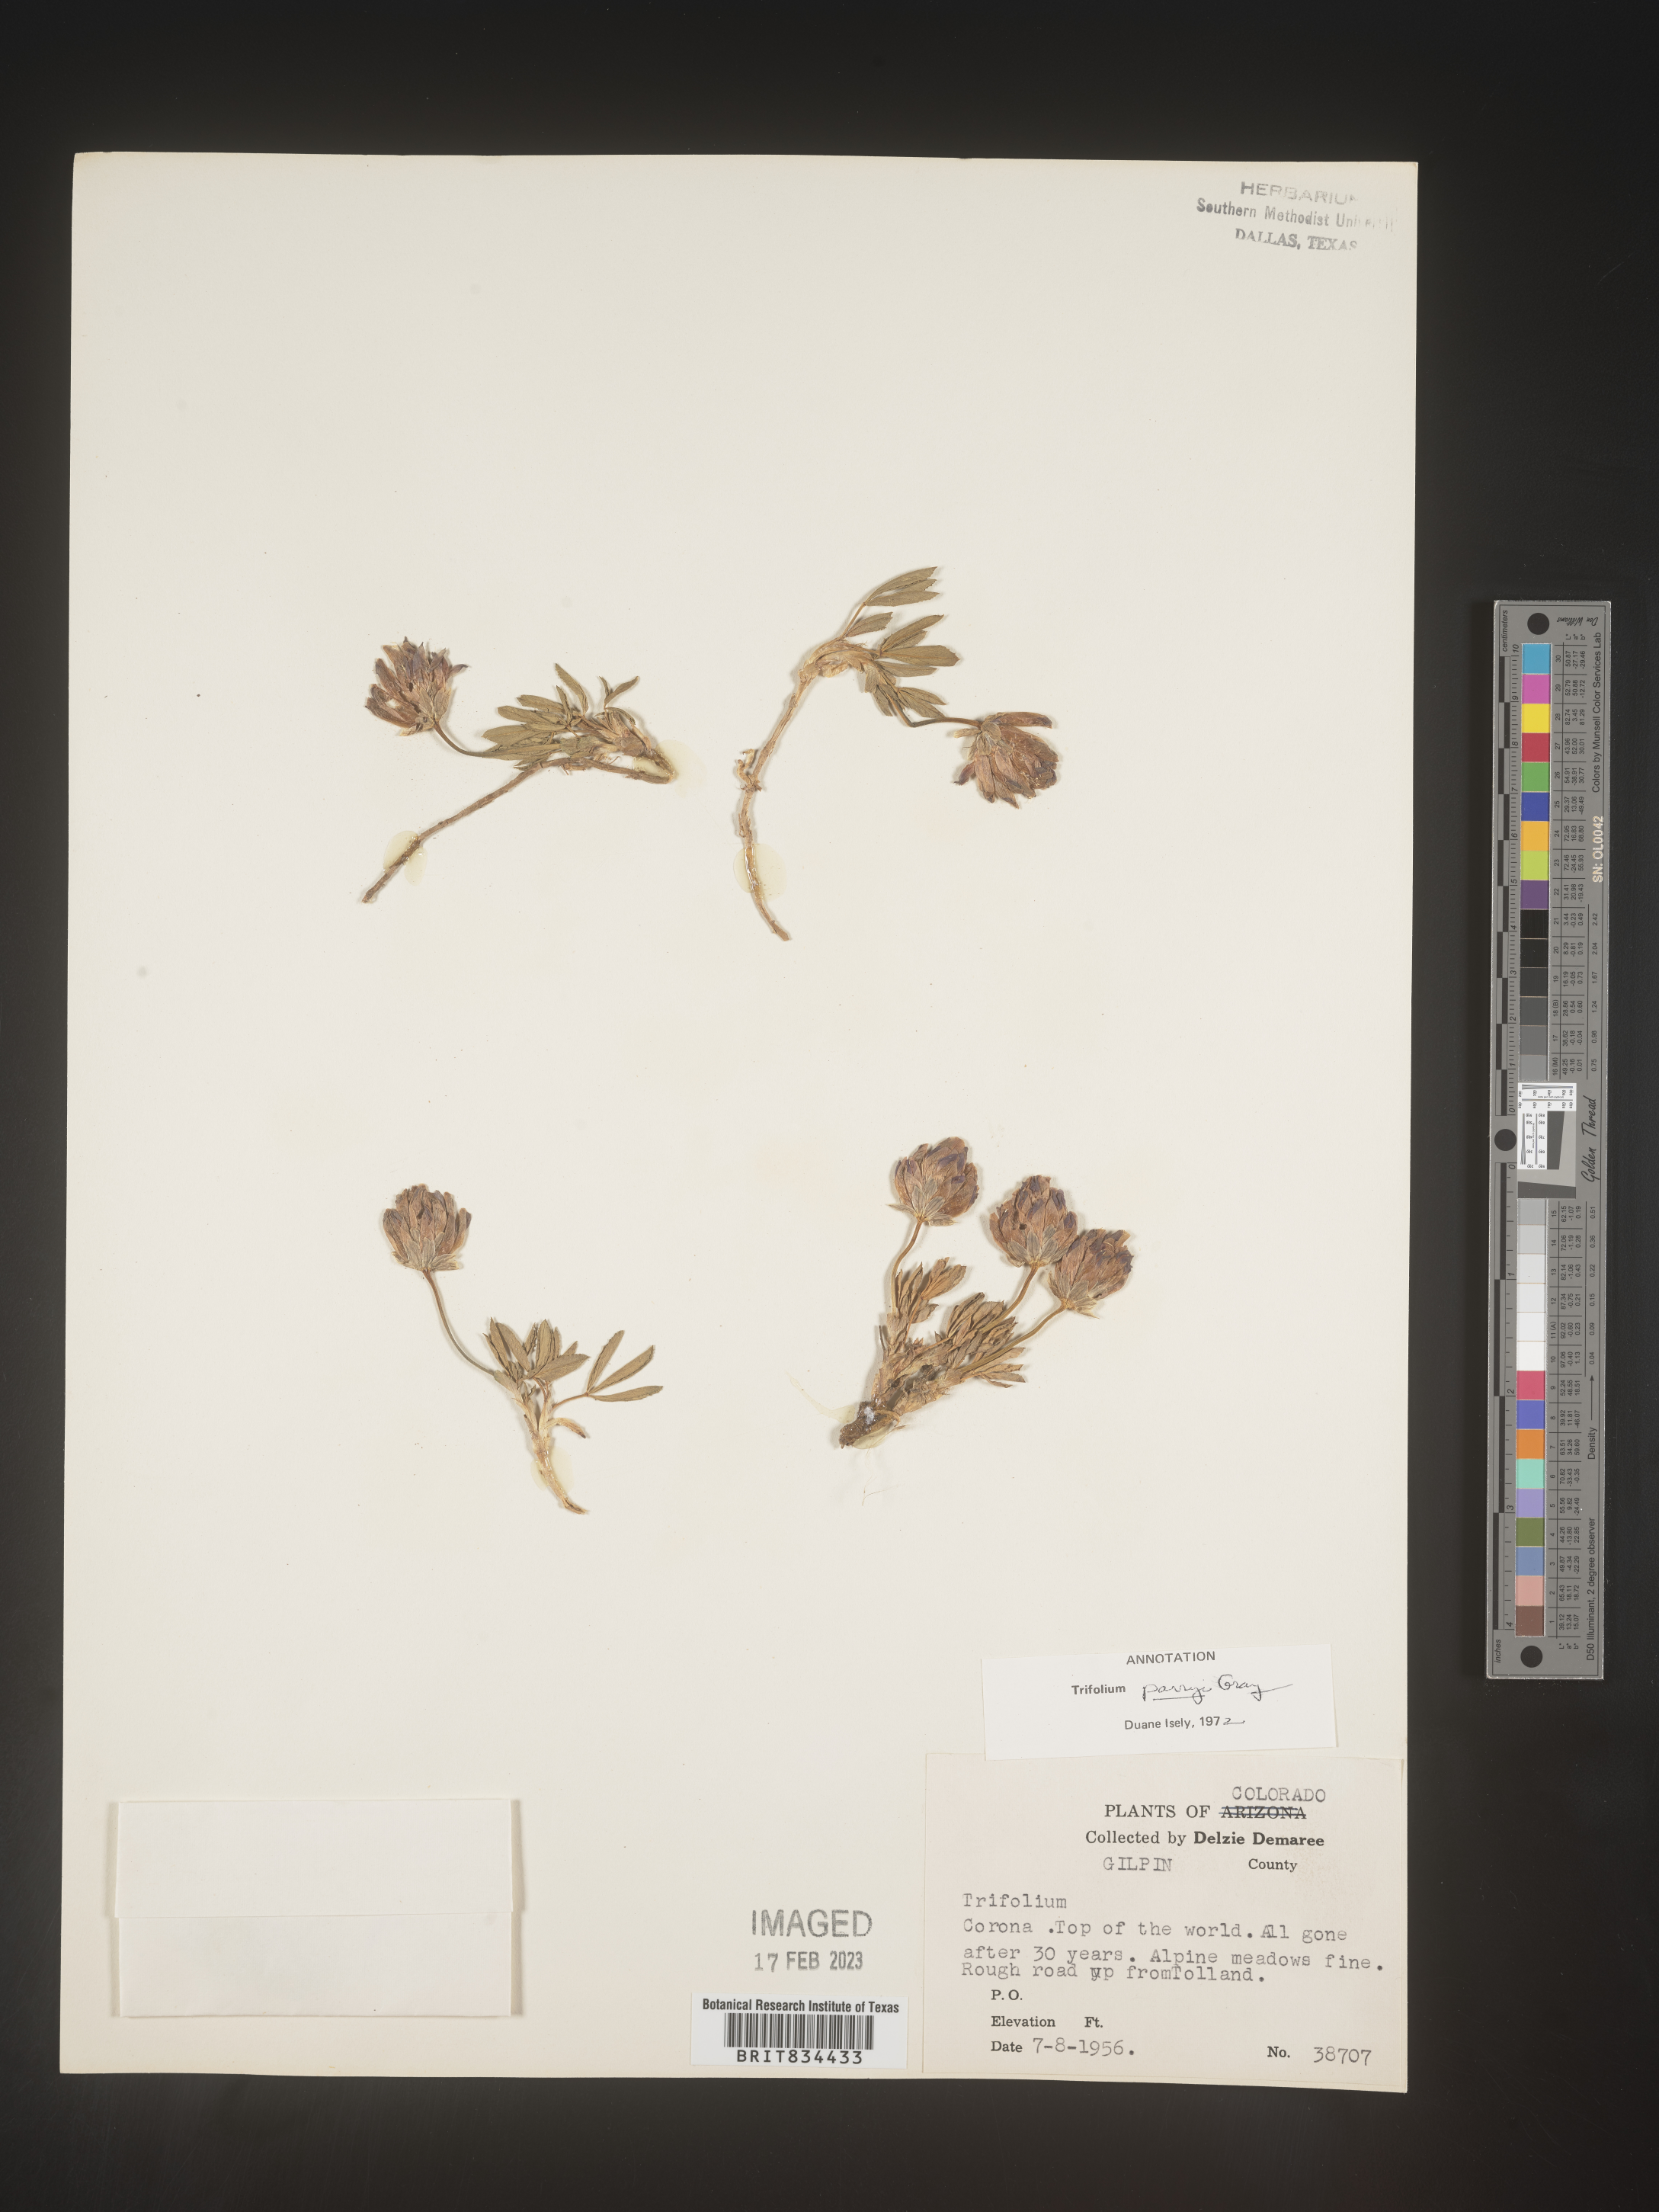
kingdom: Plantae
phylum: Tracheophyta
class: Magnoliopsida
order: Fabales
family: Fabaceae
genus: Trifolium
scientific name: Trifolium
